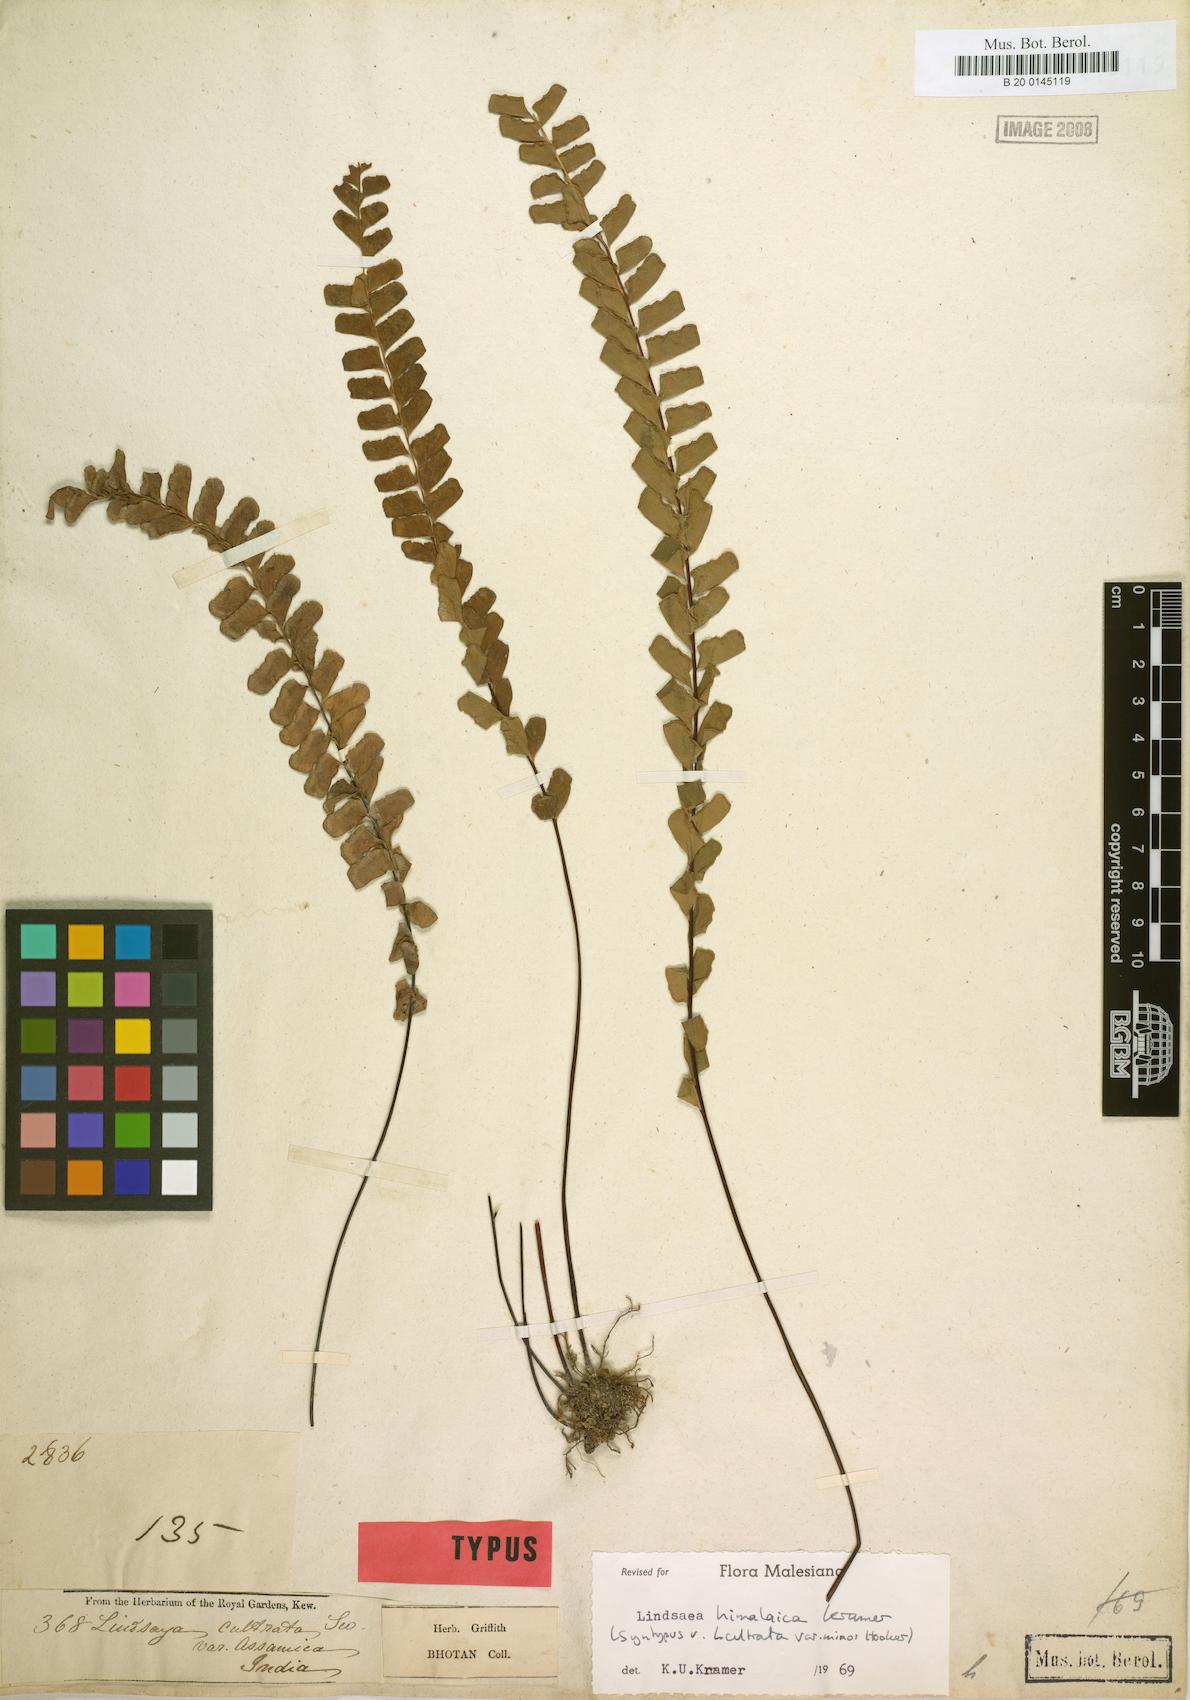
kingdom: Plantae
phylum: Tracheophyta
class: Polypodiopsida
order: Polypodiales
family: Lindsaeaceae
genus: Osmolindsaea
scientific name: Osmolindsaea himalaica
